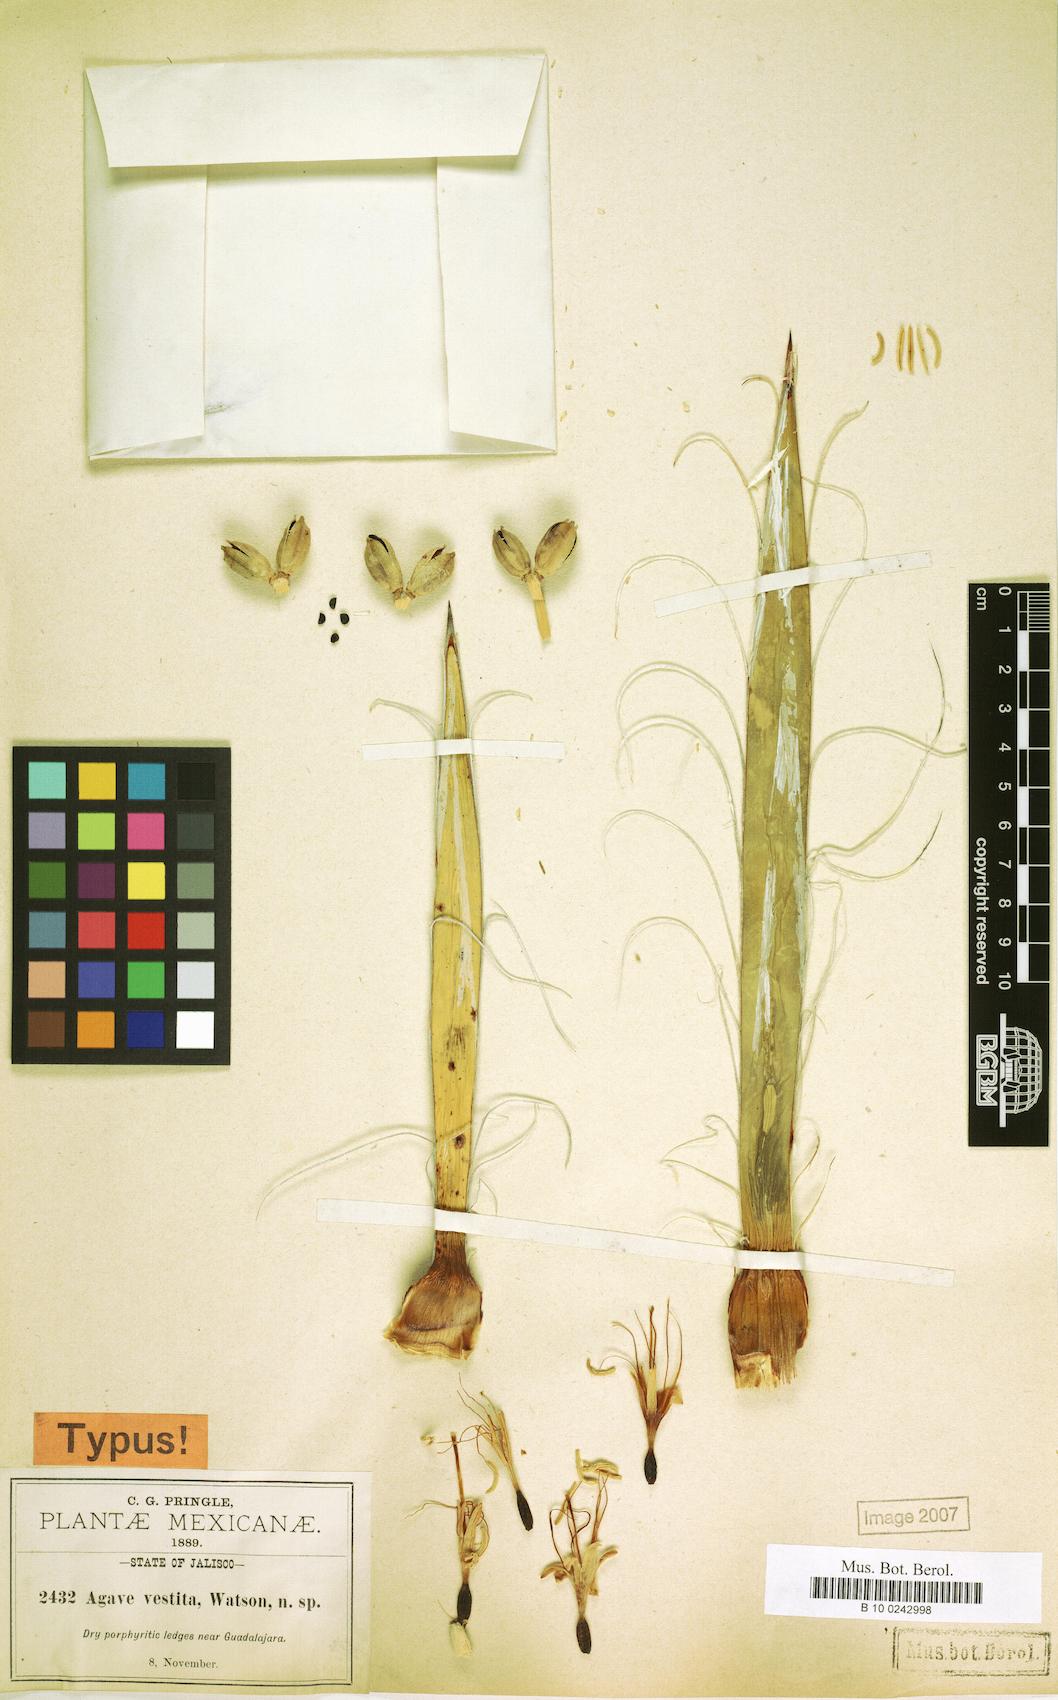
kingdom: Plantae
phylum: Tracheophyta
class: Liliopsida
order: Asparagales
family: Asparagaceae
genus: Agave
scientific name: Agave schidigera
